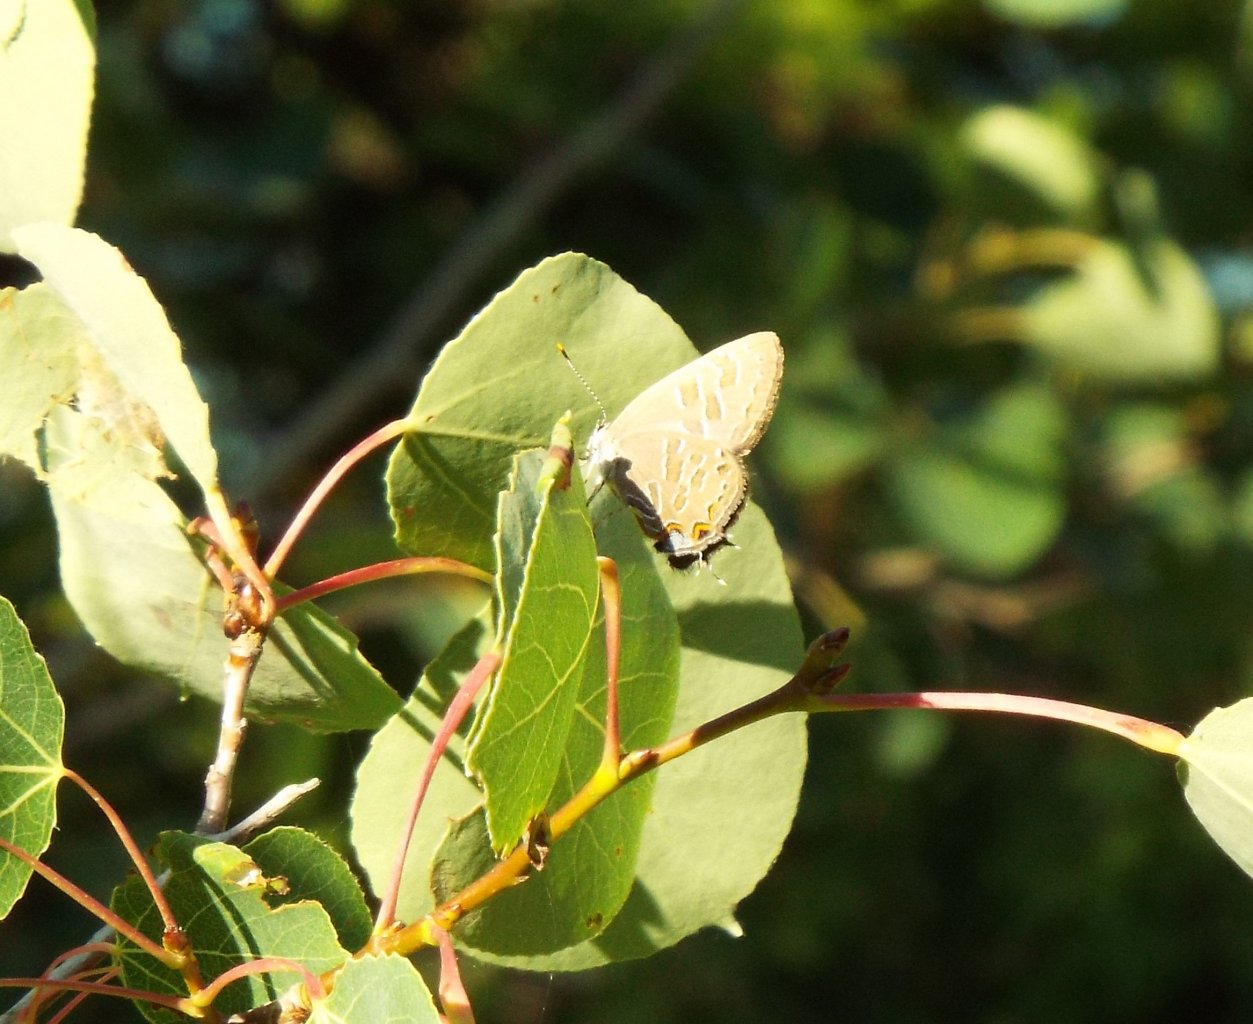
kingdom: Animalia
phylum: Arthropoda
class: Insecta
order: Lepidoptera
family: Lycaenidae
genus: Satyrium
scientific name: Satyrium liparops
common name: Striped Hairstreak
